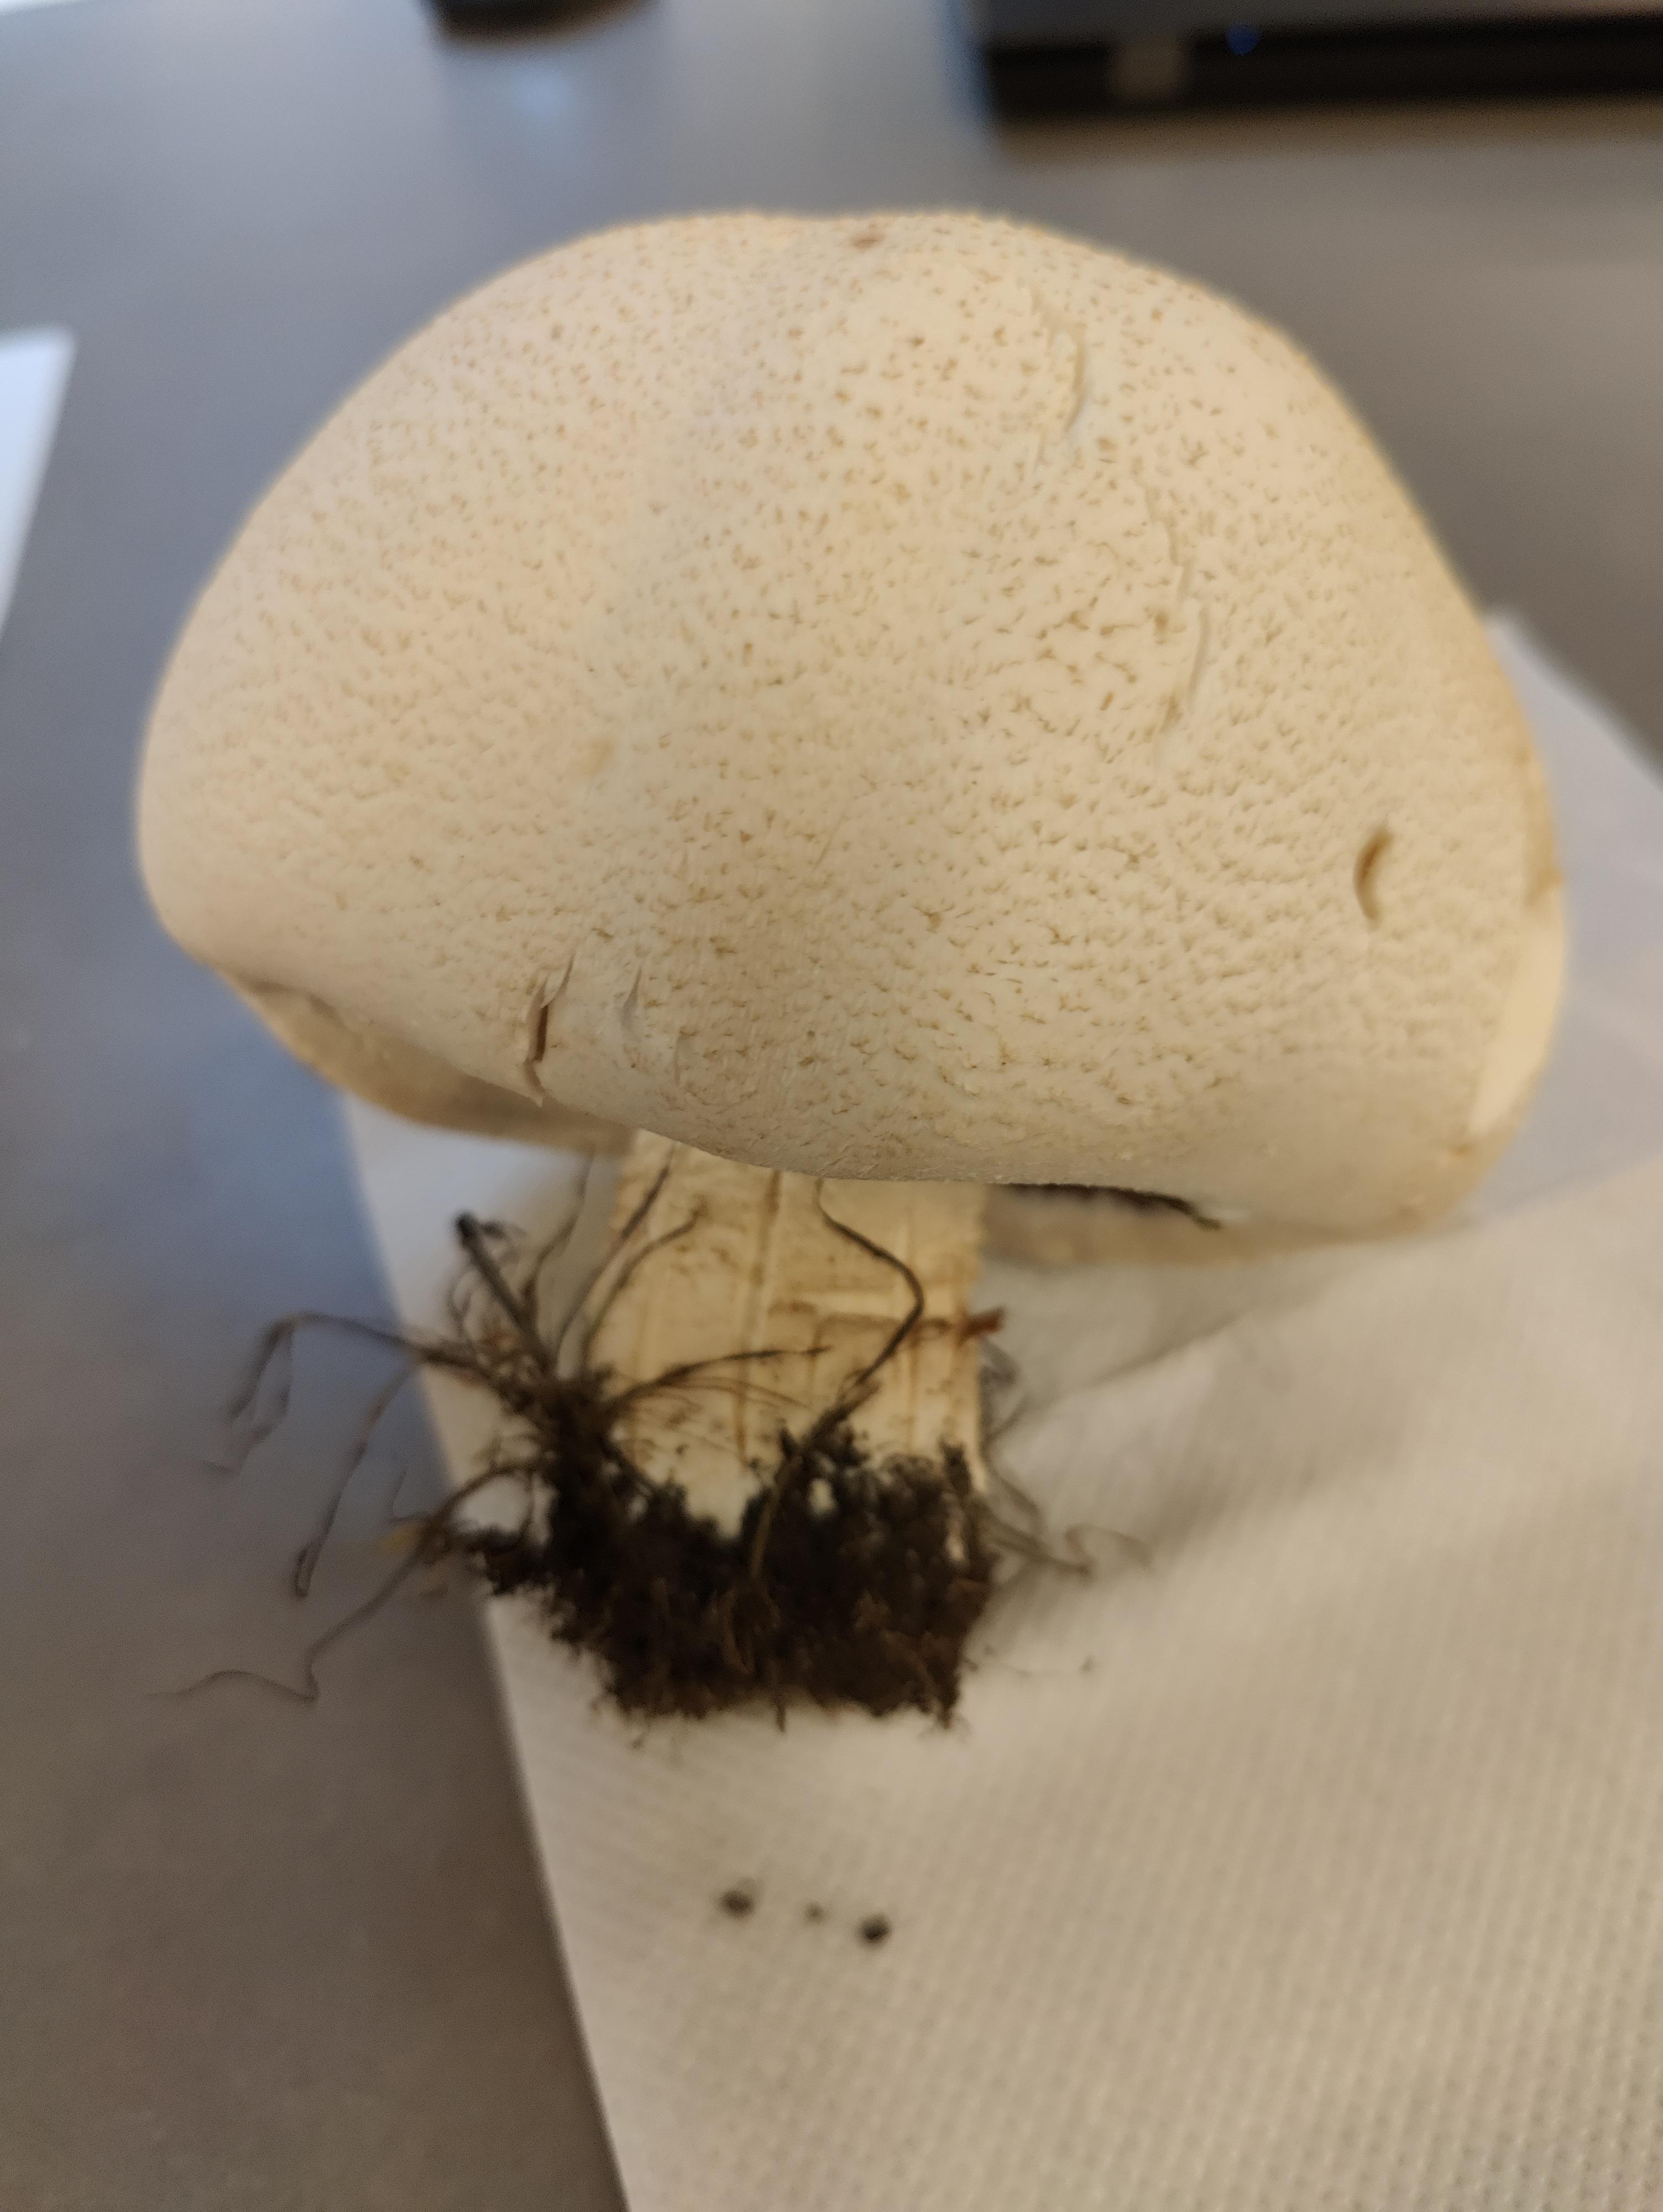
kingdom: Fungi
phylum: Basidiomycota
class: Agaricomycetes
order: Agaricales
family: Agaricaceae
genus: Agaricus
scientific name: Agaricus
